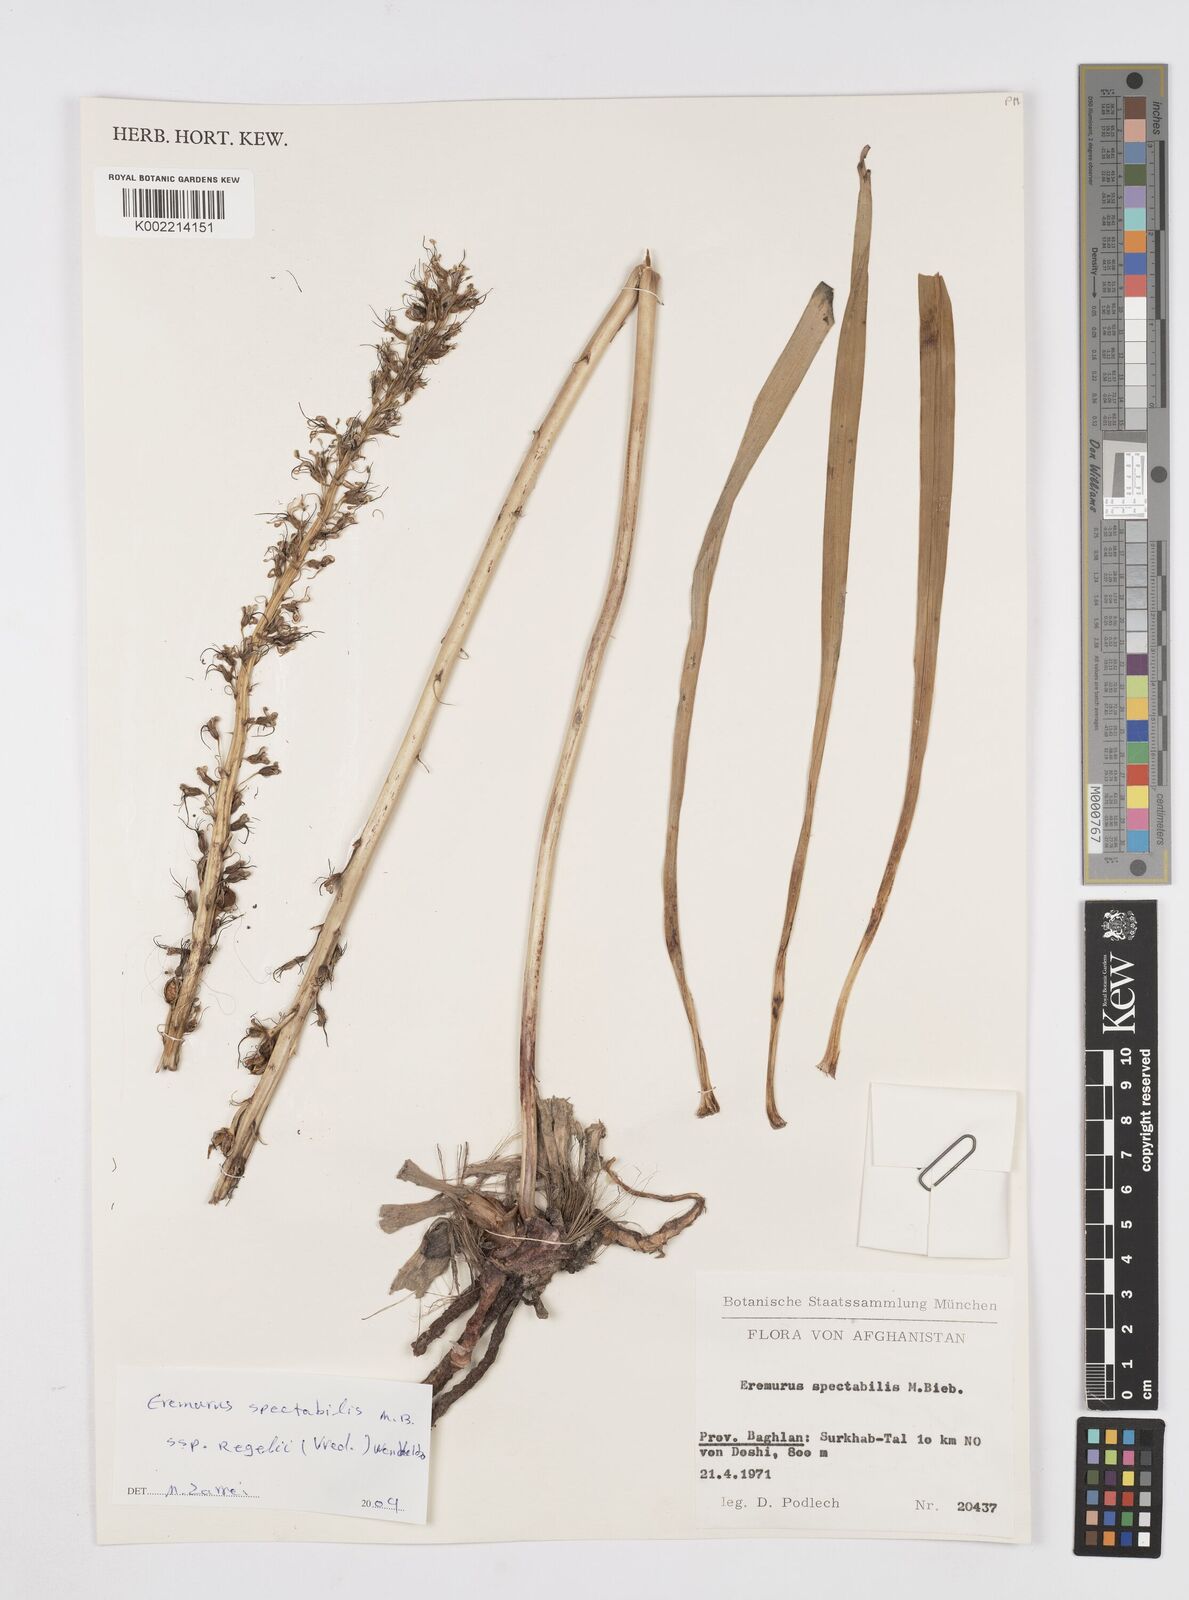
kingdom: Plantae
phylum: Tracheophyta
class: Liliopsida
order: Asparagales
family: Asphodelaceae
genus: Eremurus
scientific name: Eremurus spectabilis
